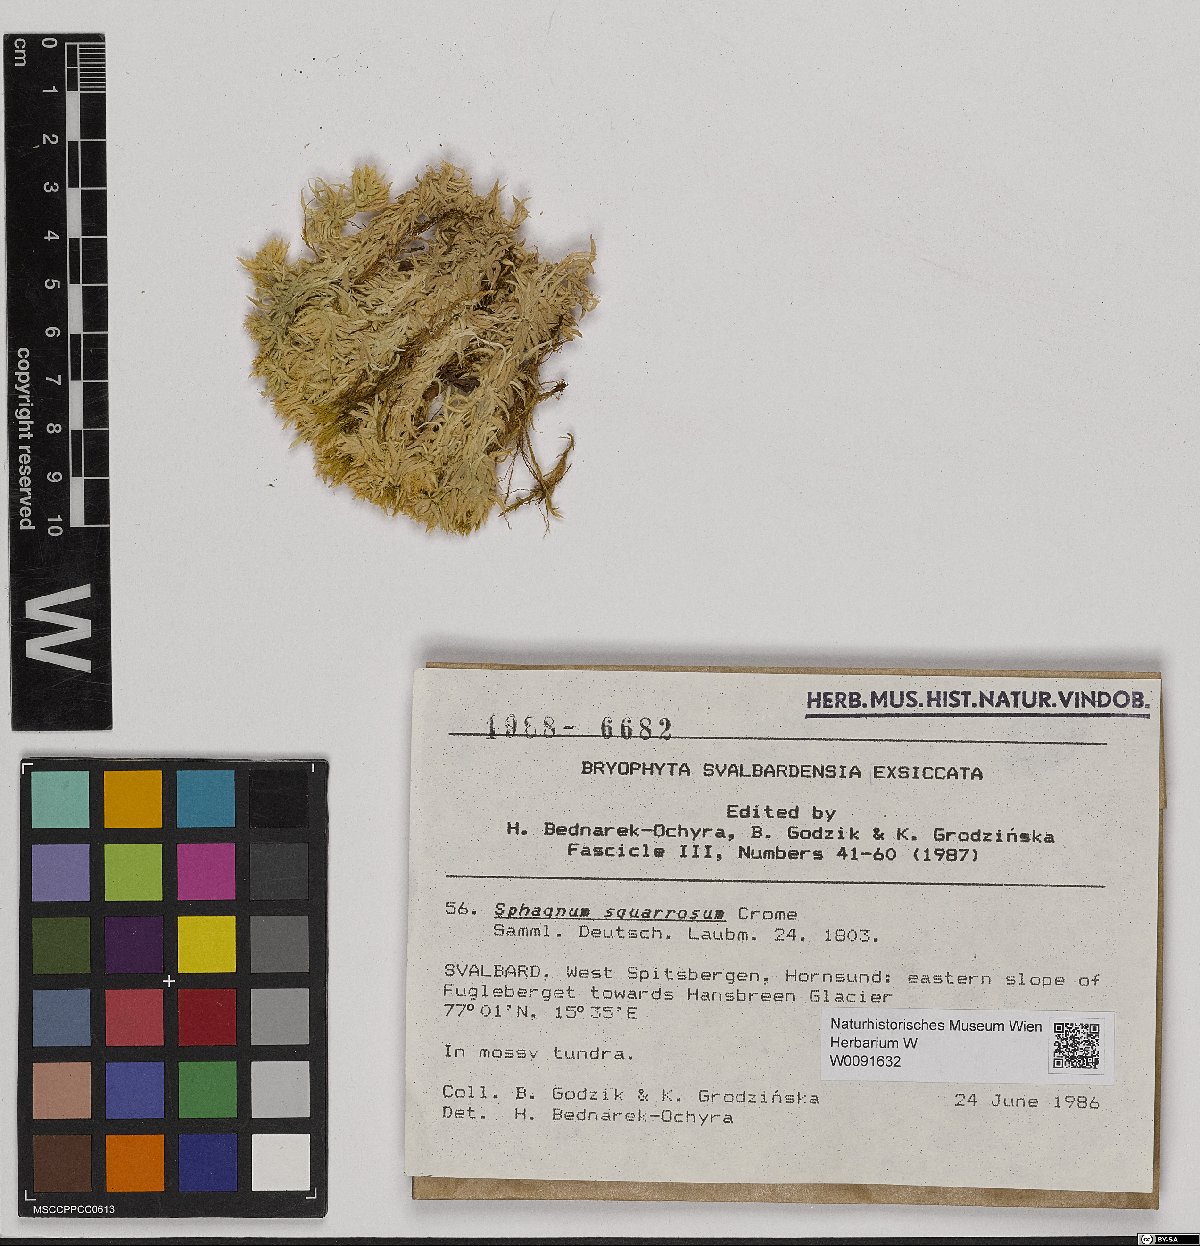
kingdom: Plantae
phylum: Bryophyta
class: Sphagnopsida
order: Sphagnales
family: Sphagnaceae
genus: Sphagnum
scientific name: Sphagnum squarrosum
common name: Shaggy peat moss
